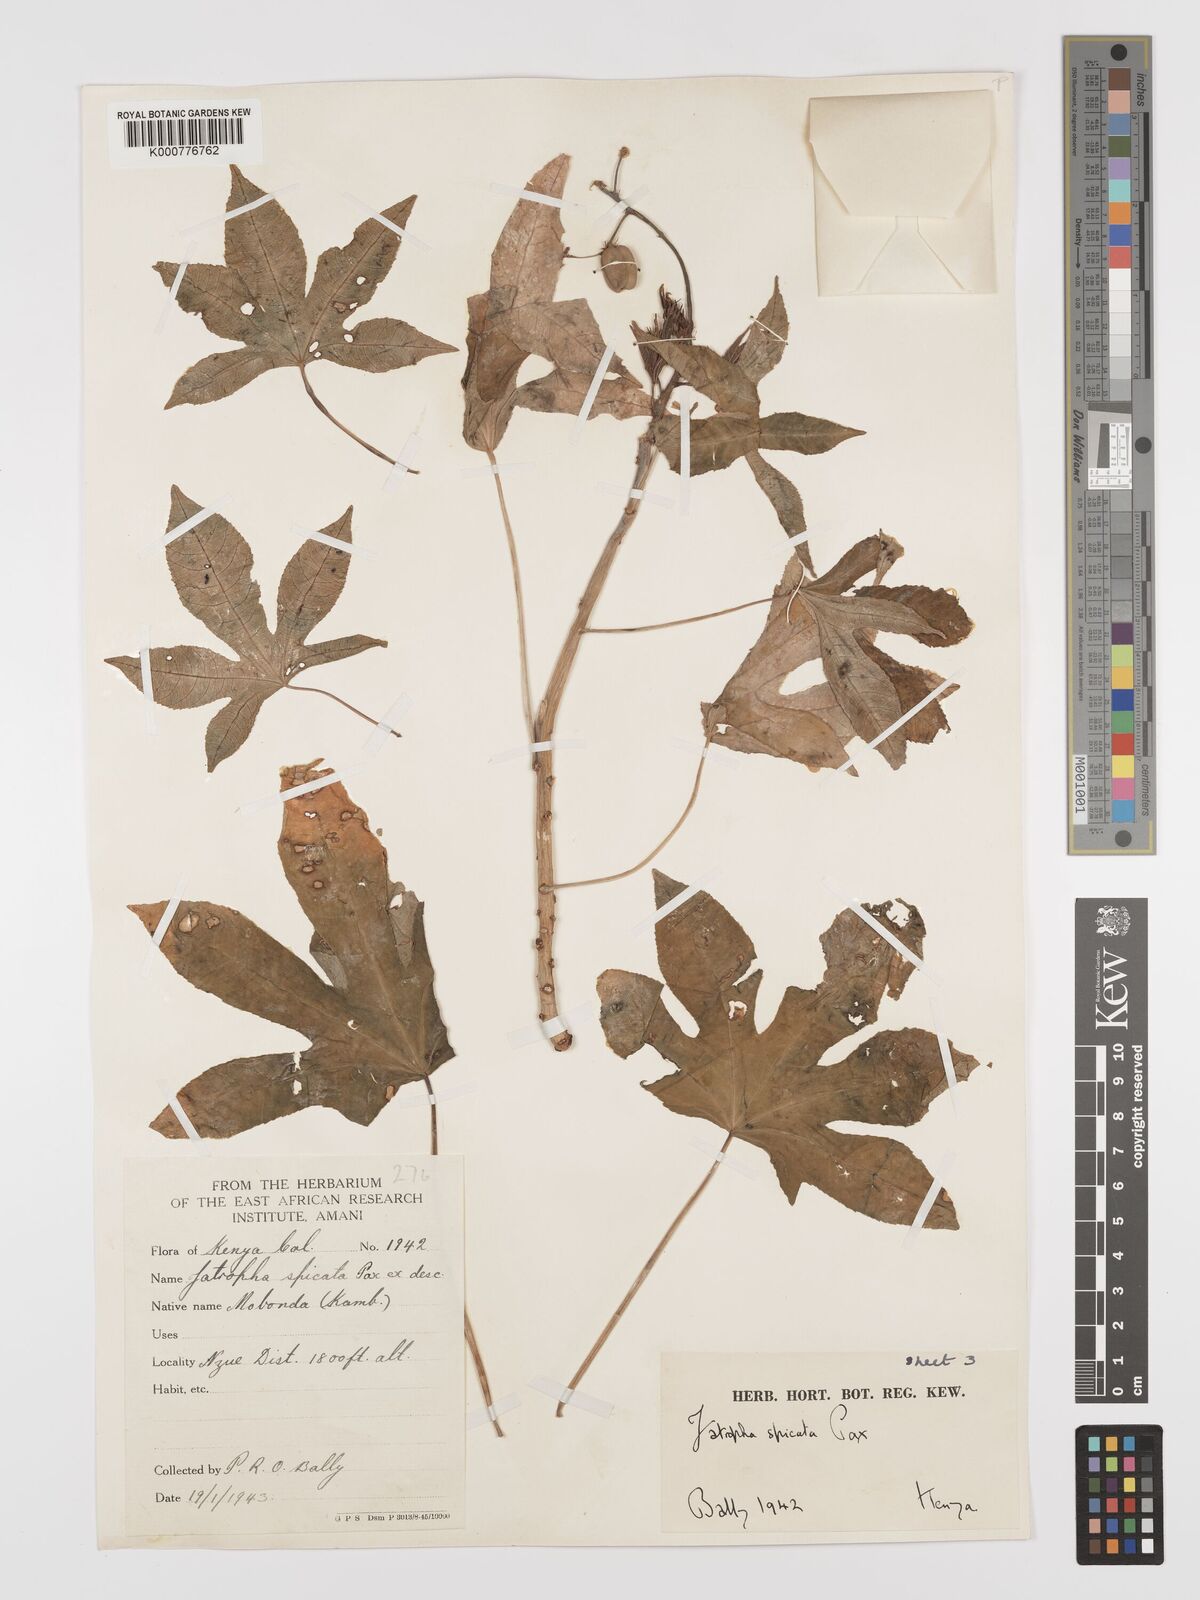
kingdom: Plantae
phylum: Tracheophyta
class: Magnoliopsida
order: Malpighiales
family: Euphorbiaceae
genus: Jatropha
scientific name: Jatropha spicata
